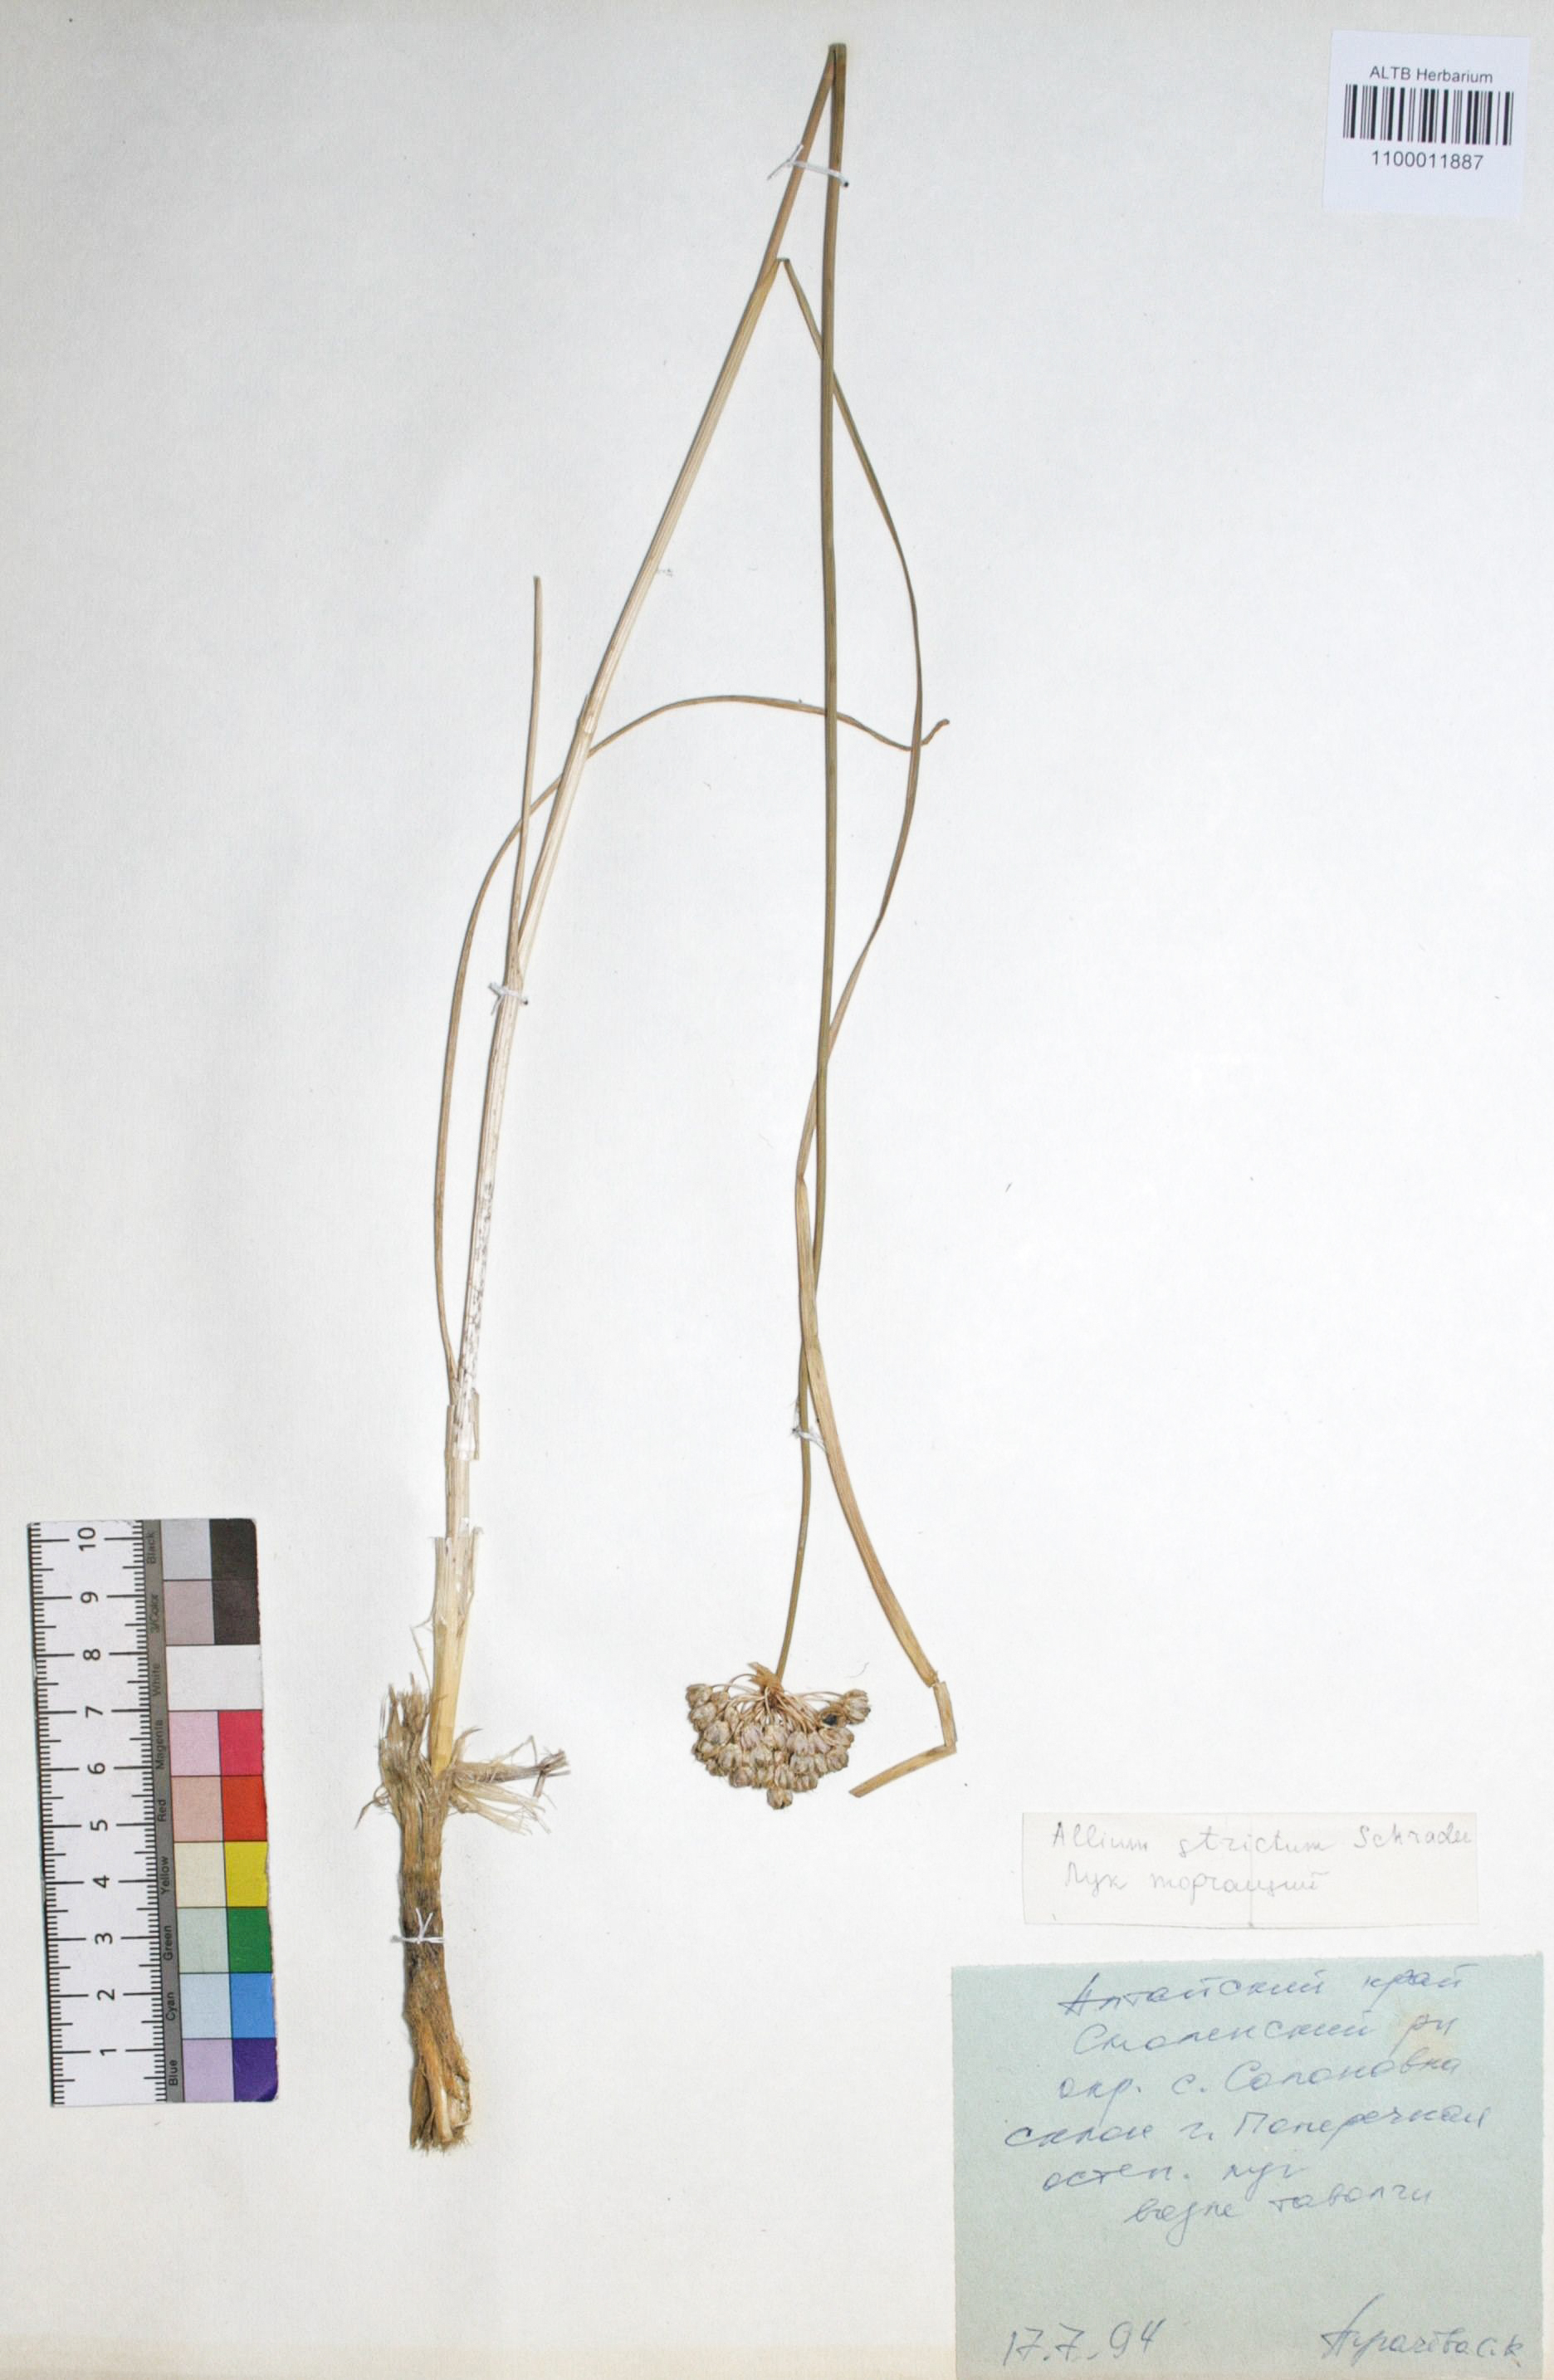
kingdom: Plantae
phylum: Tracheophyta
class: Liliopsida
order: Asparagales
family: Amaryllidaceae
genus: Allium
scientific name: Allium strictum
